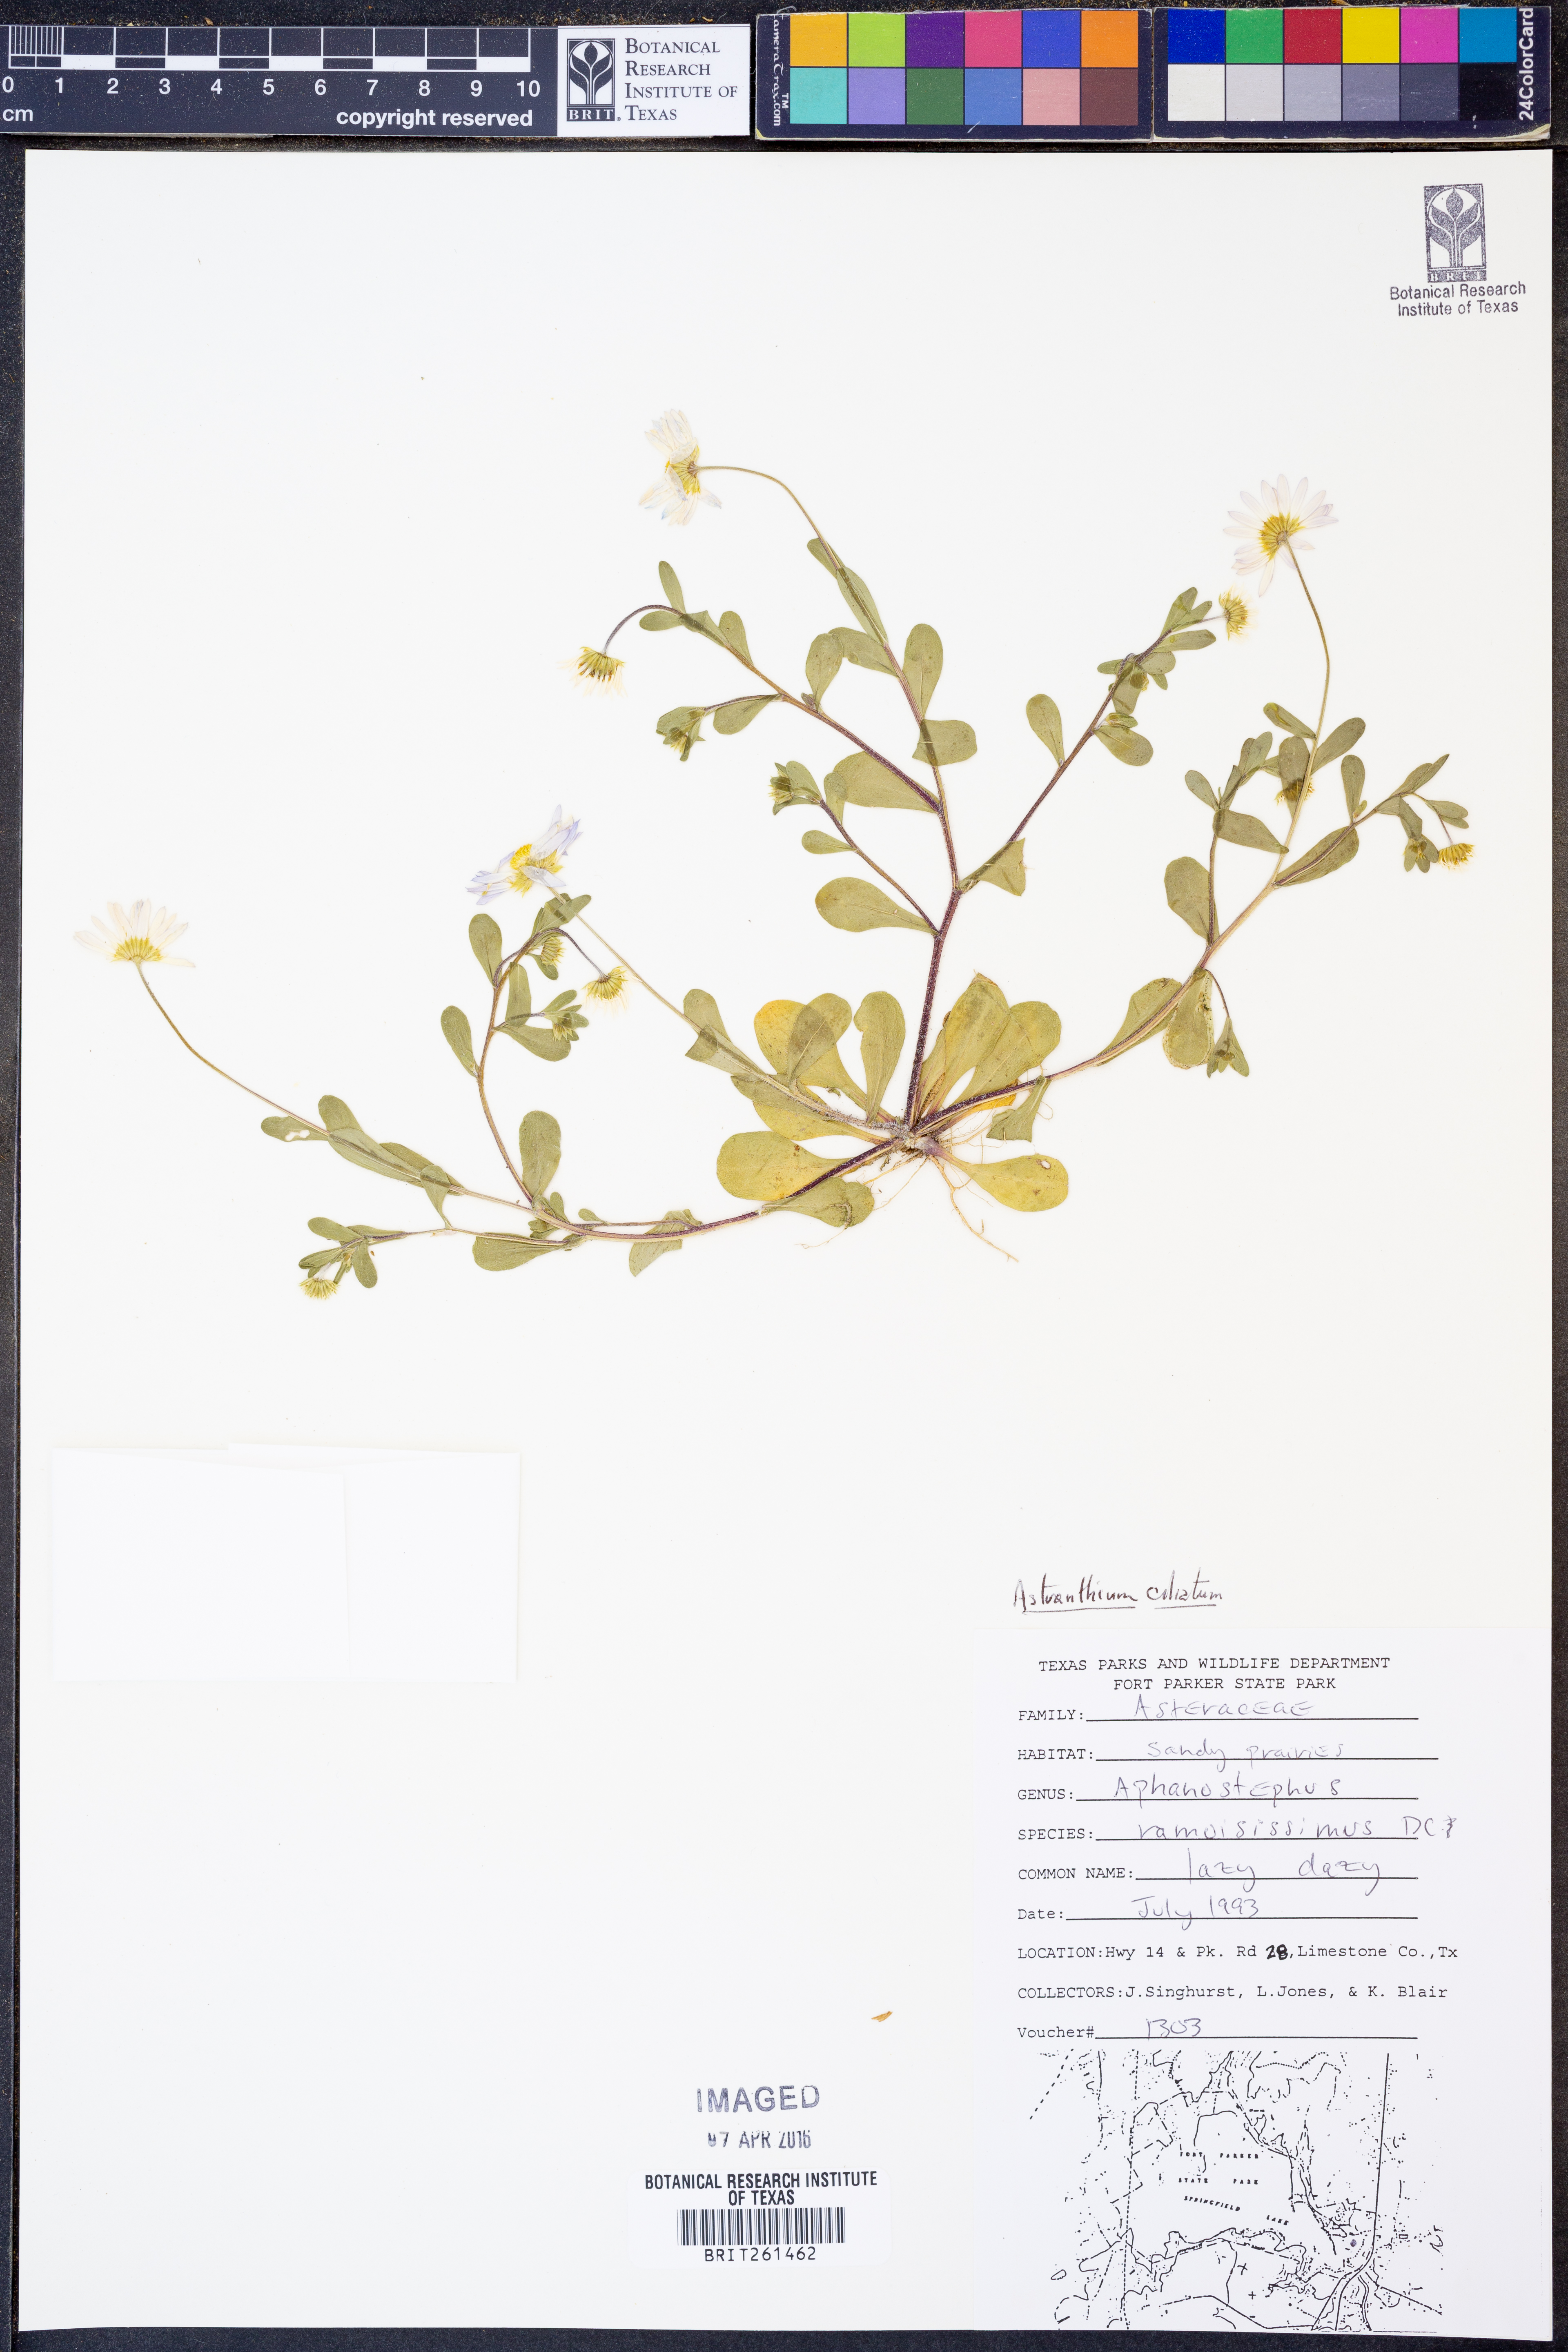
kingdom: Plantae
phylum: Tracheophyta
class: Magnoliopsida
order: Asterales
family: Asteraceae
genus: Astranthium
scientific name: Astranthium ciliatum
